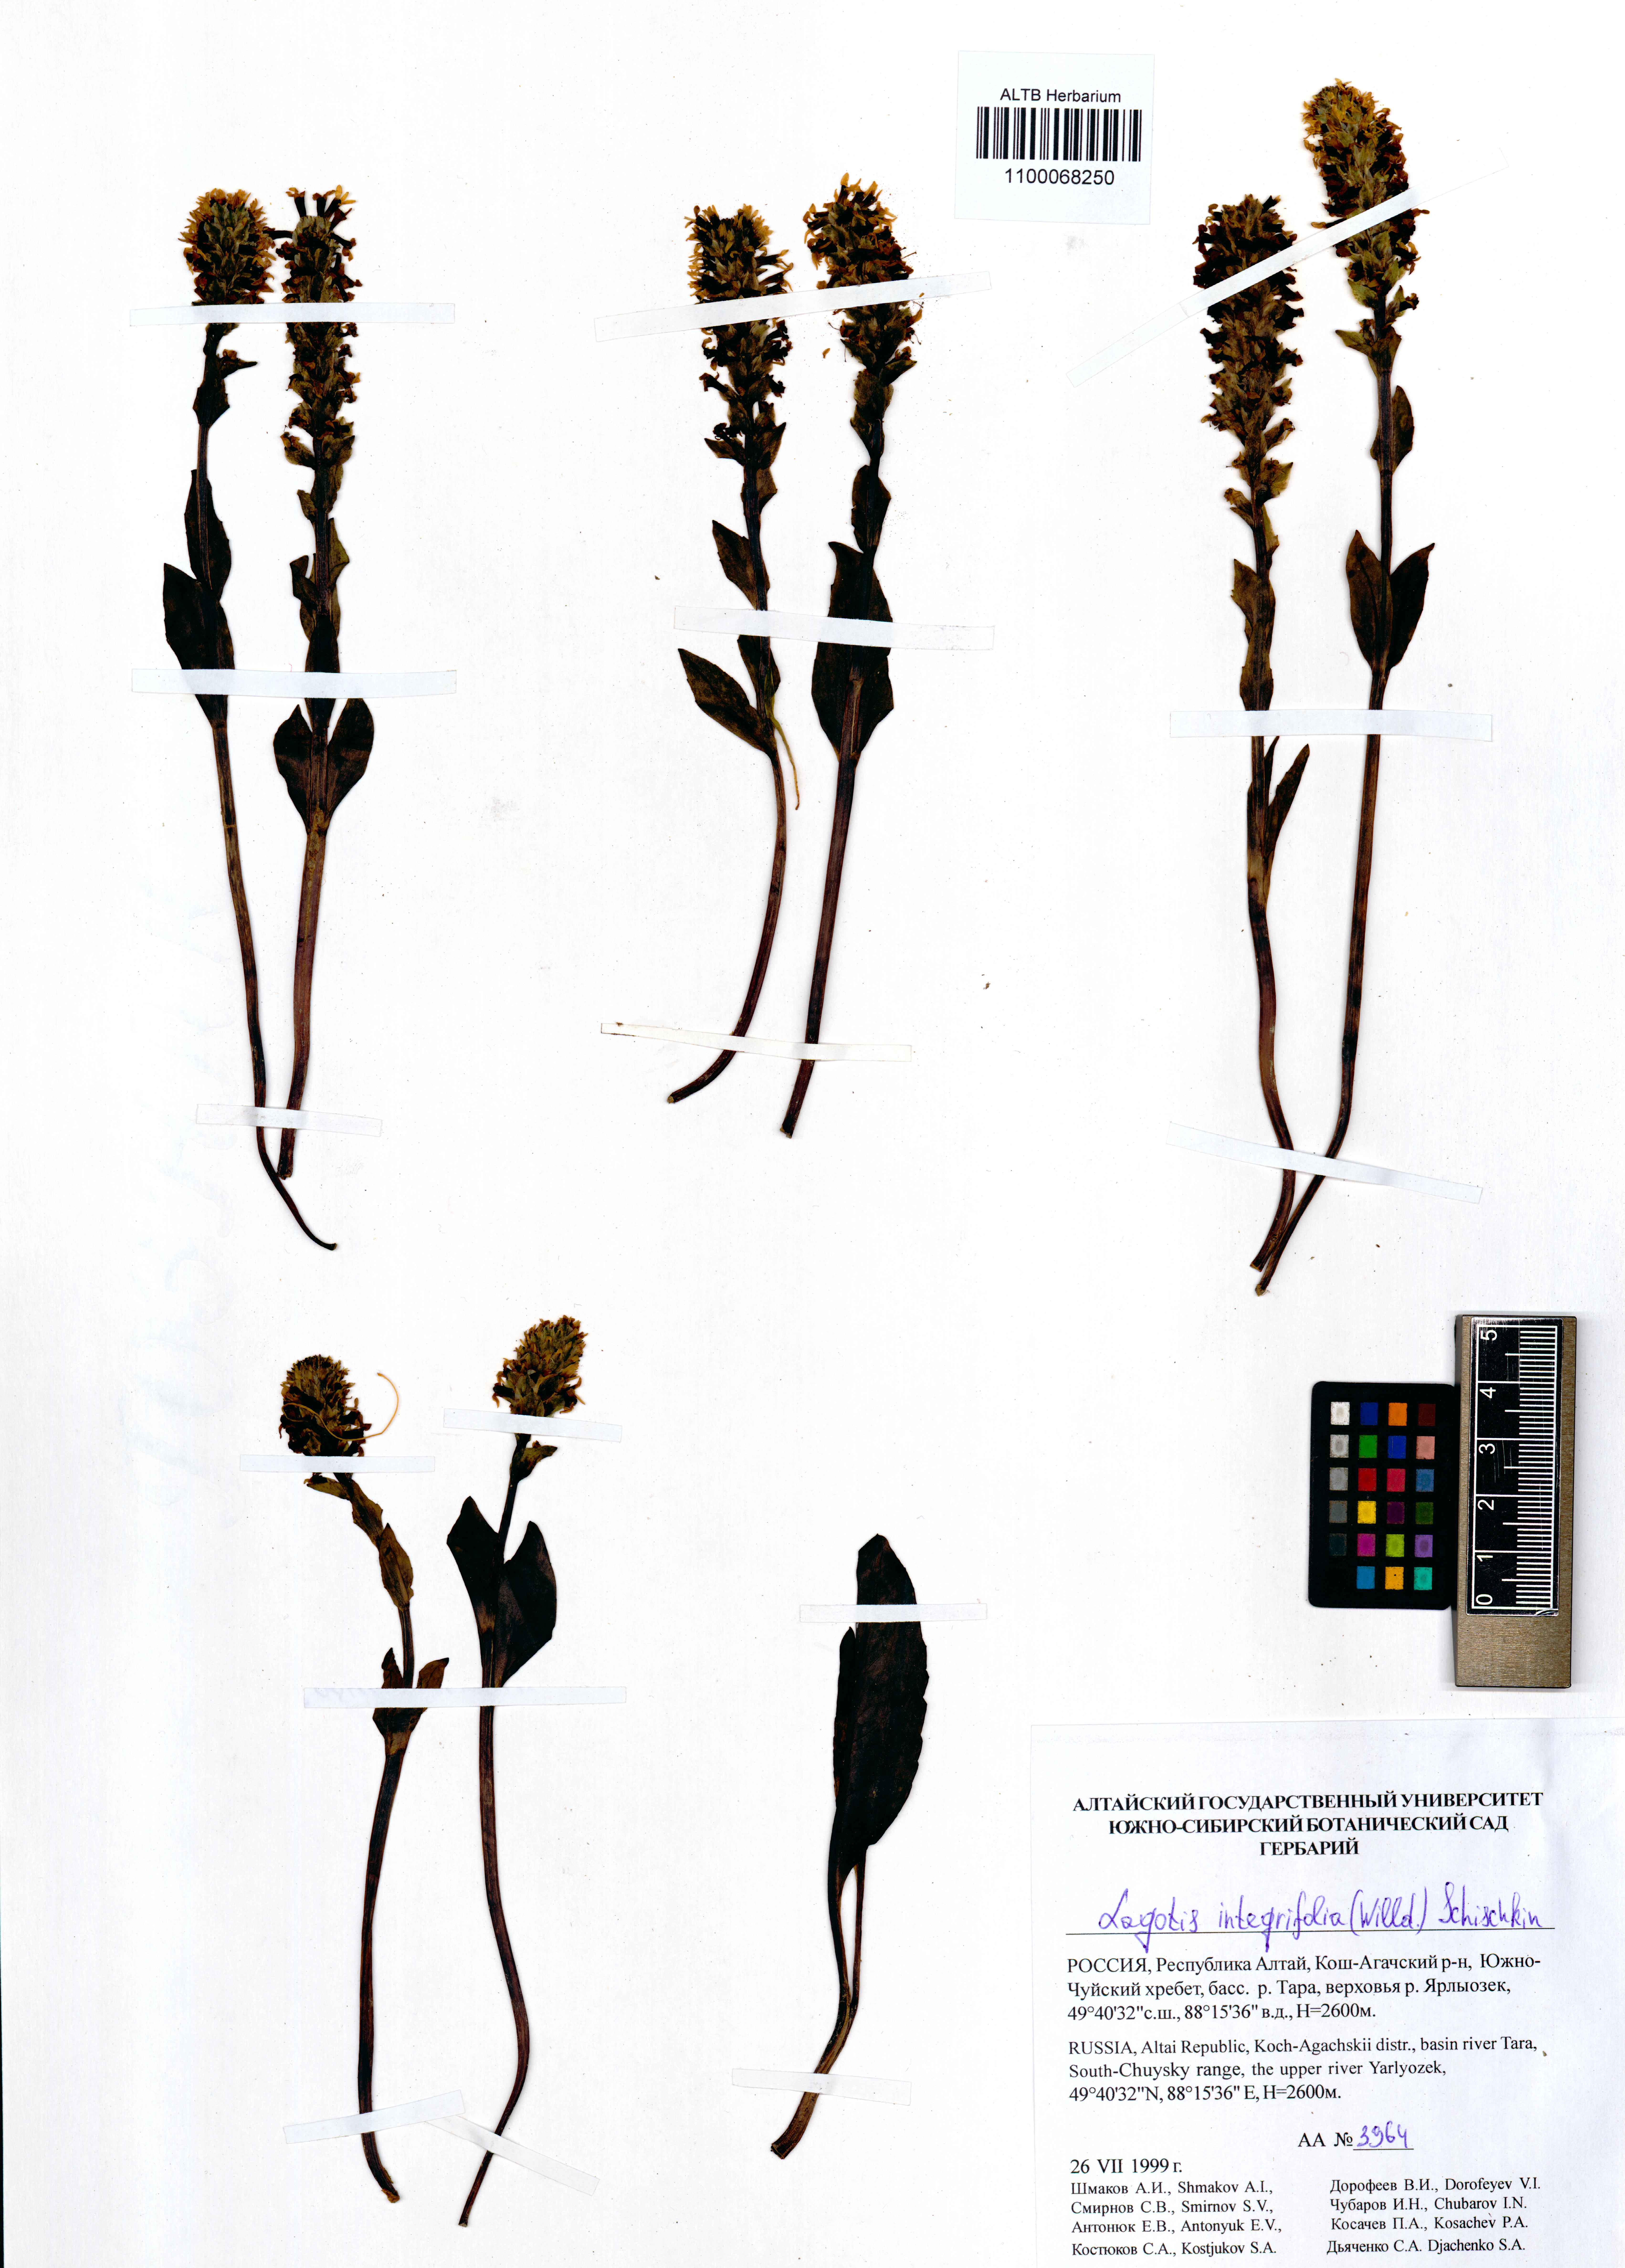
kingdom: Plantae
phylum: Tracheophyta
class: Magnoliopsida
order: Lamiales
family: Plantaginaceae
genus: Lagotis
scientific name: Lagotis integrifolia
